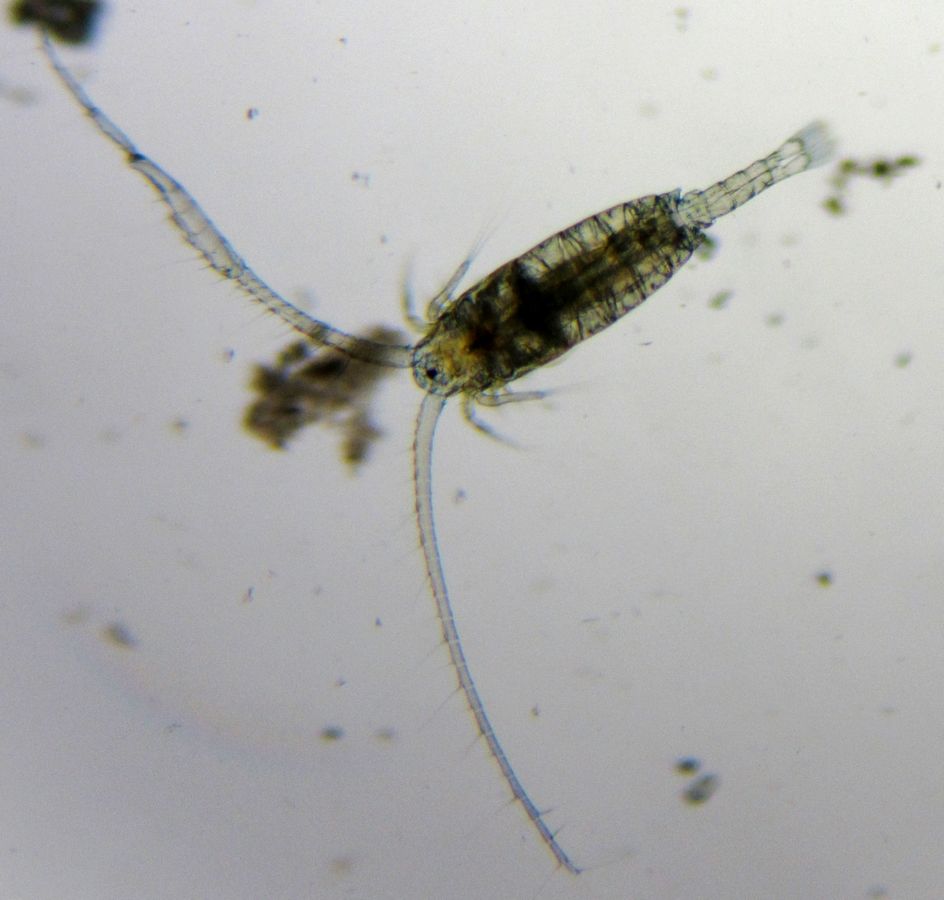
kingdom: Animalia
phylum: Arthropoda
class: Copepoda
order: Calanoida
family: Diaptomidae
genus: Diaptomus
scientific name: Diaptomus zografi
